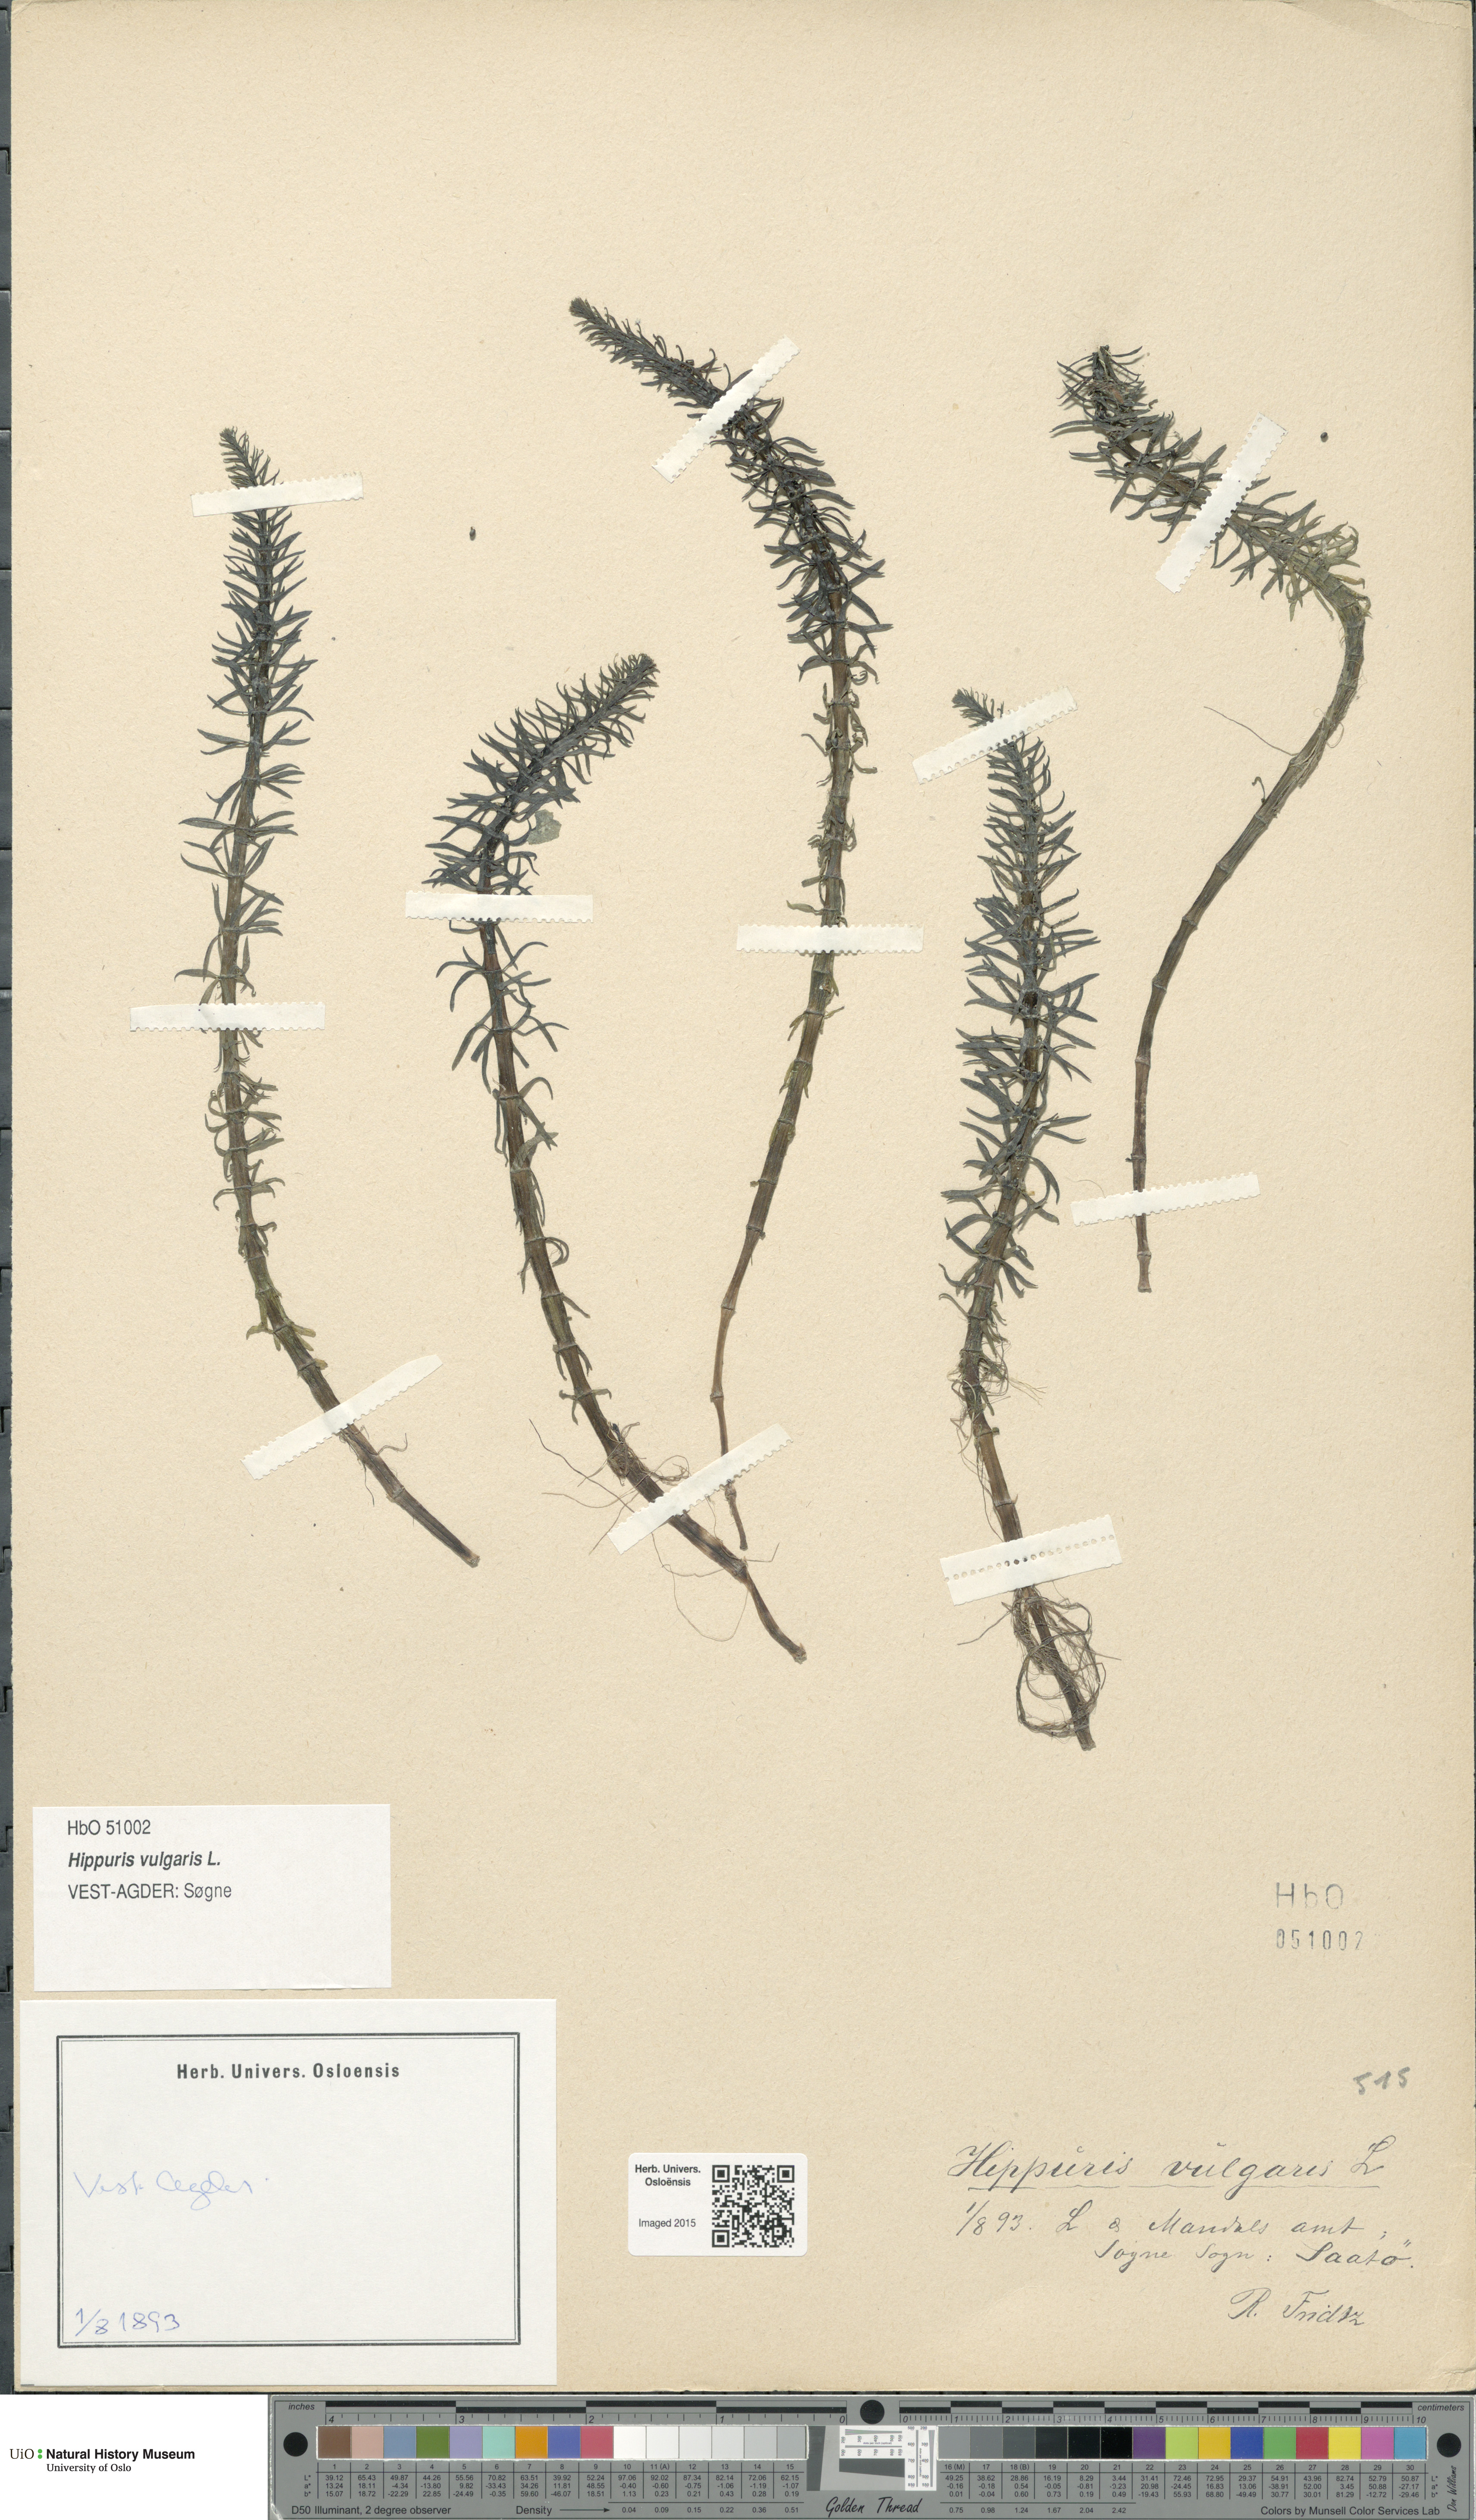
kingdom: Plantae
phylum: Tracheophyta
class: Magnoliopsida
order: Lamiales
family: Plantaginaceae
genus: Hippuris
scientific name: Hippuris vulgaris
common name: Mare's-tail
